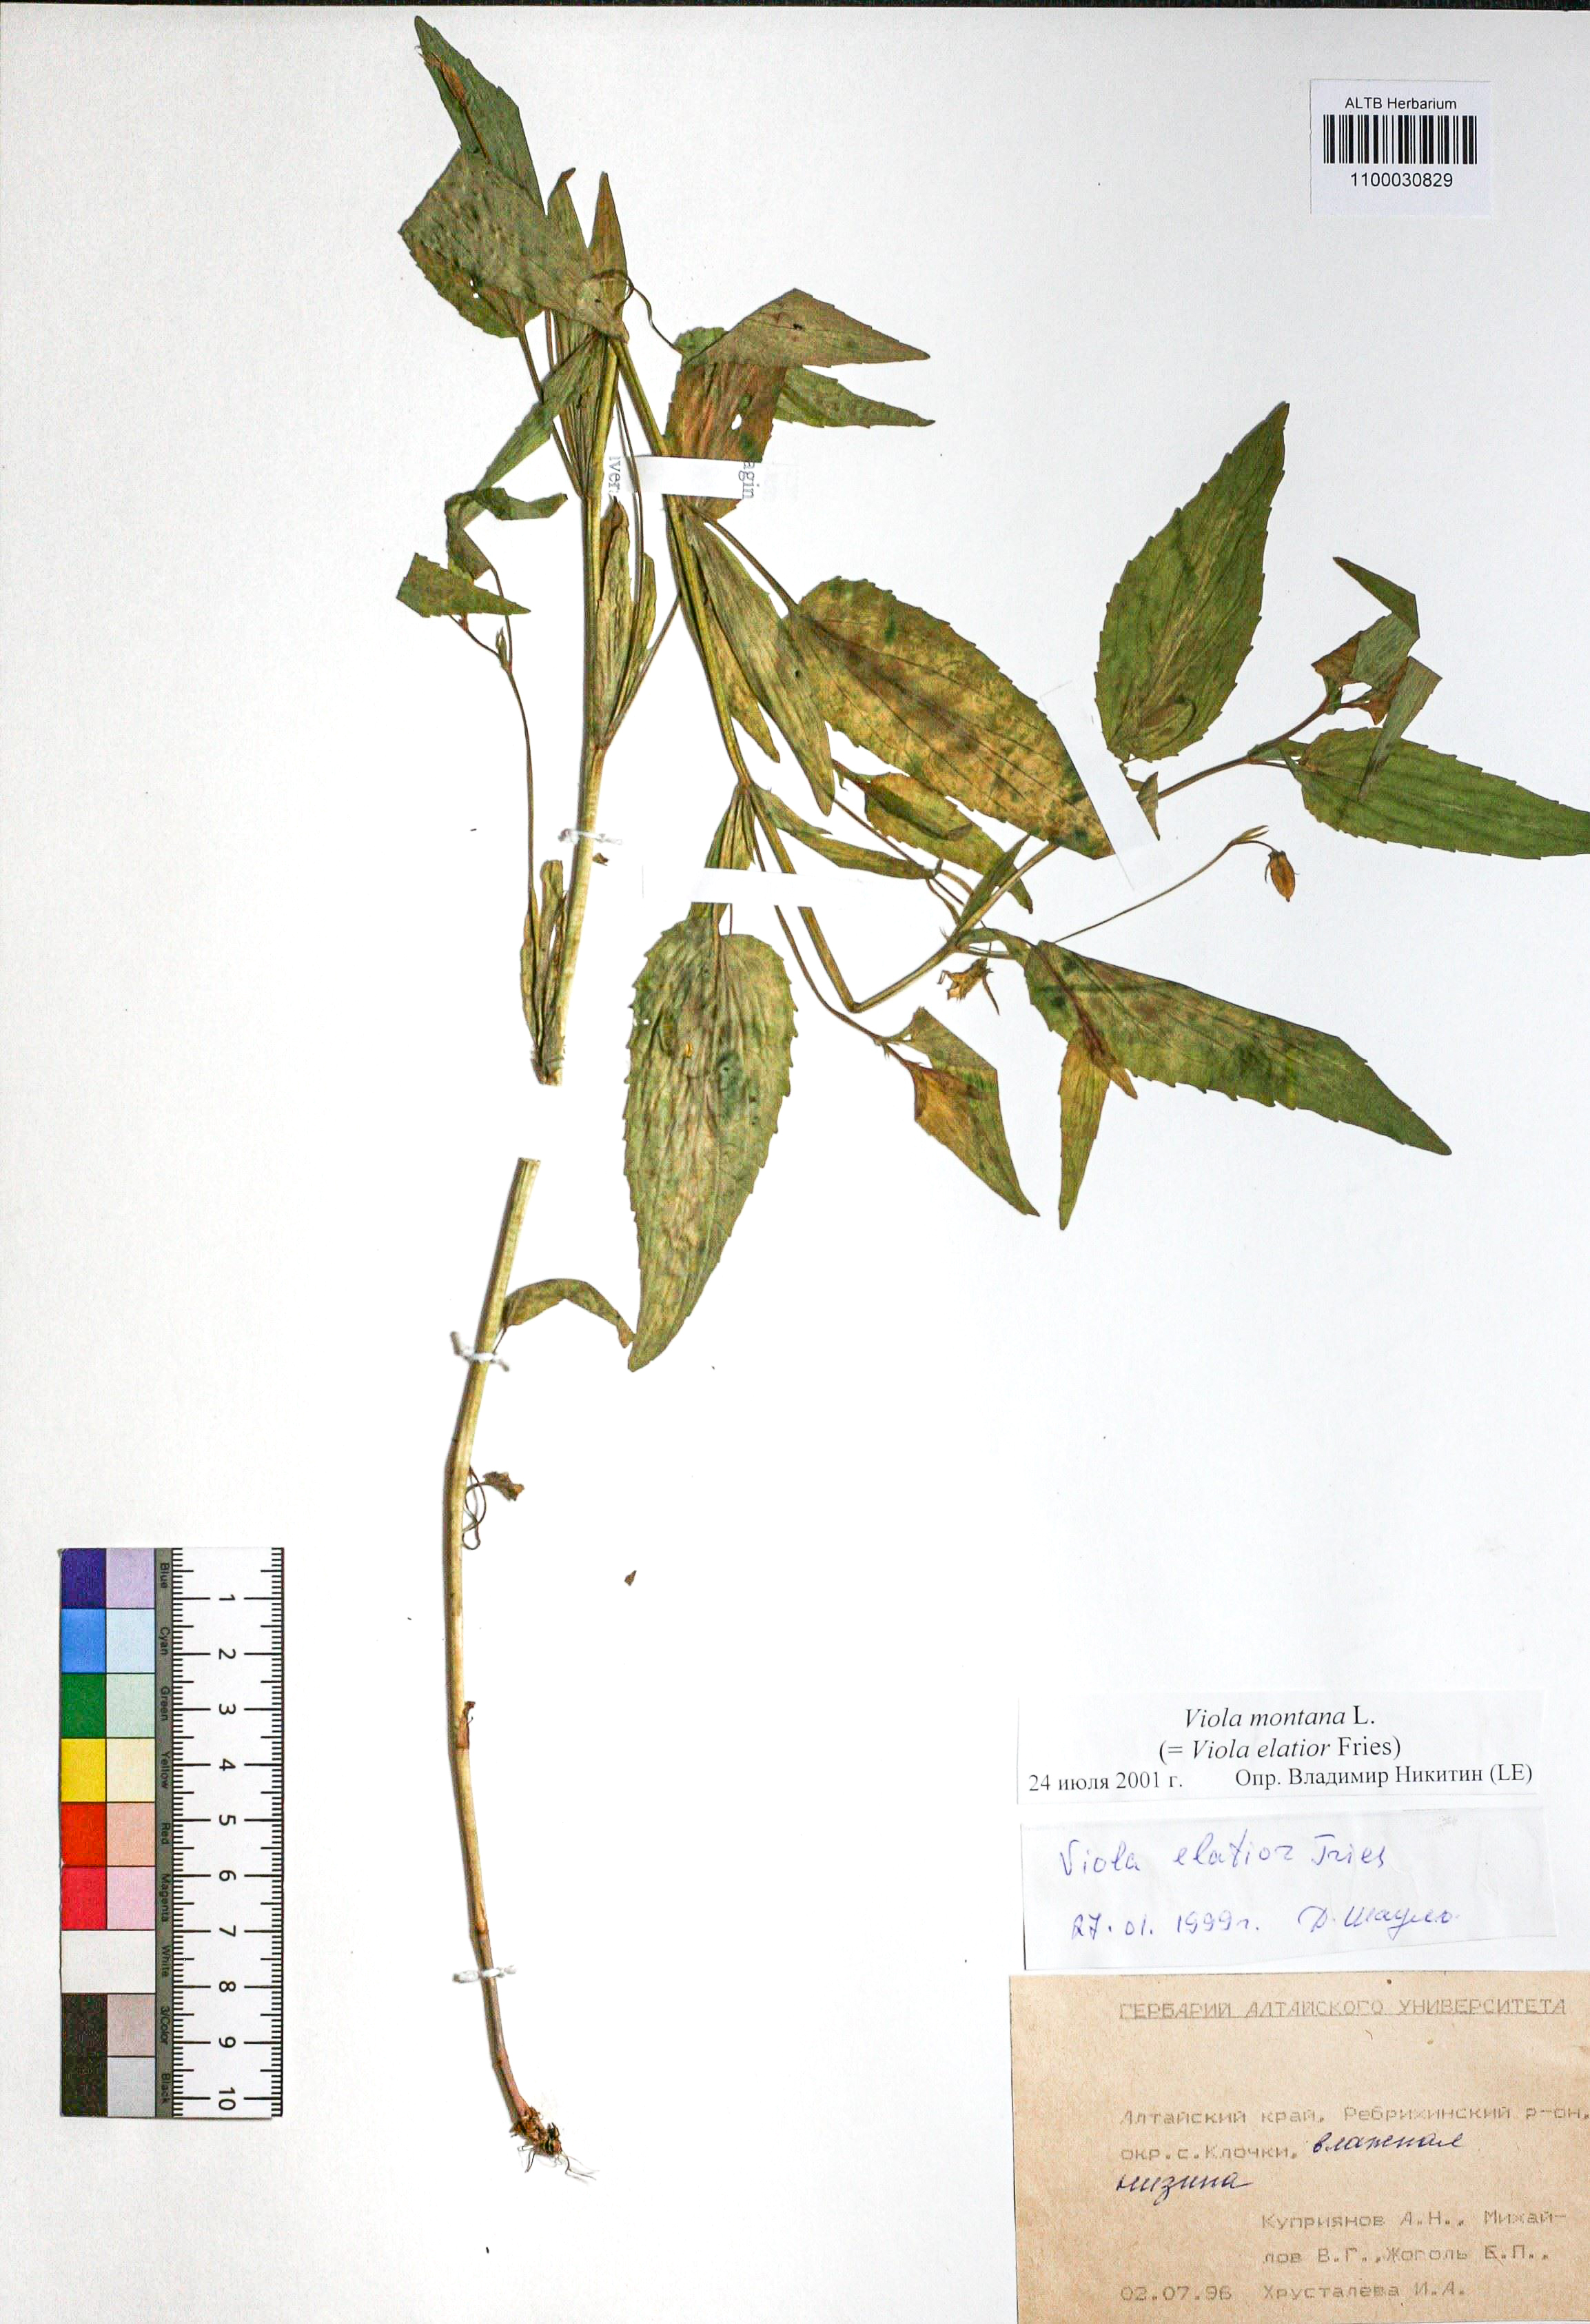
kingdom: Plantae
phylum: Tracheophyta
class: Magnoliopsida
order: Malpighiales
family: Violaceae
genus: Viola
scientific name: Viola ruppii
